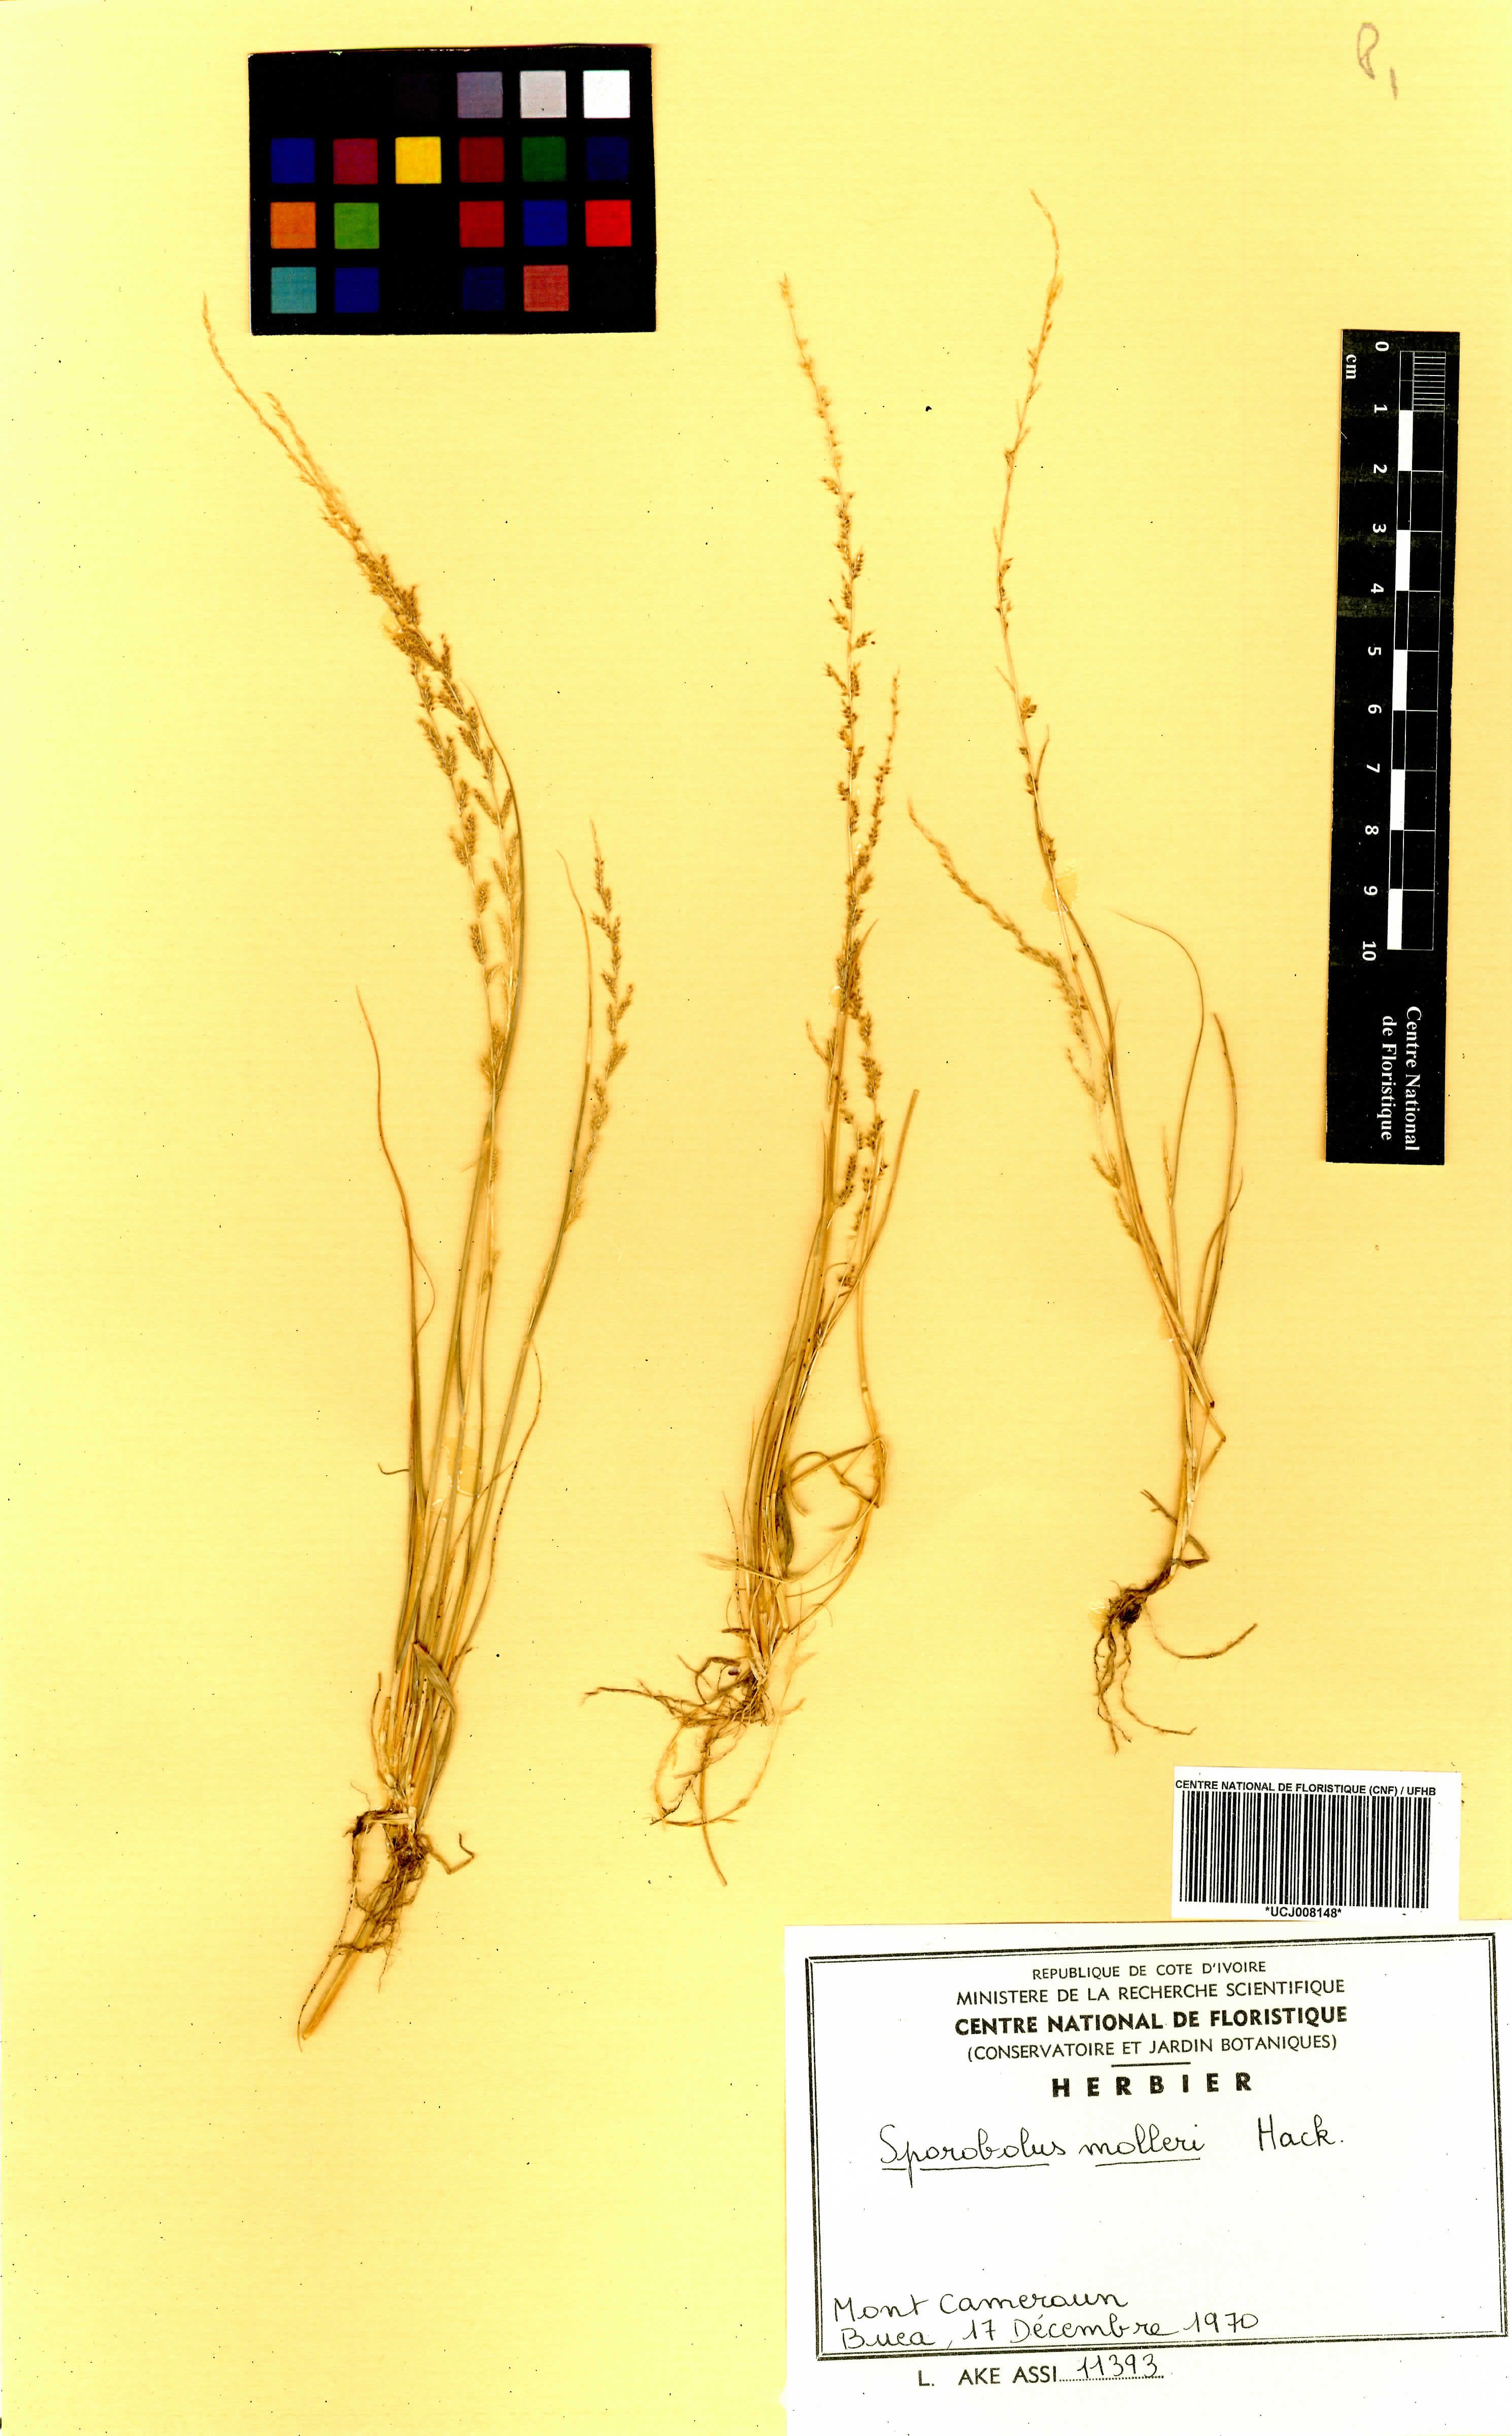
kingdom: Plantae
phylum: Tracheophyta
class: Liliopsida
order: Poales
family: Poaceae
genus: Sporobolus
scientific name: Sporobolus molleri
